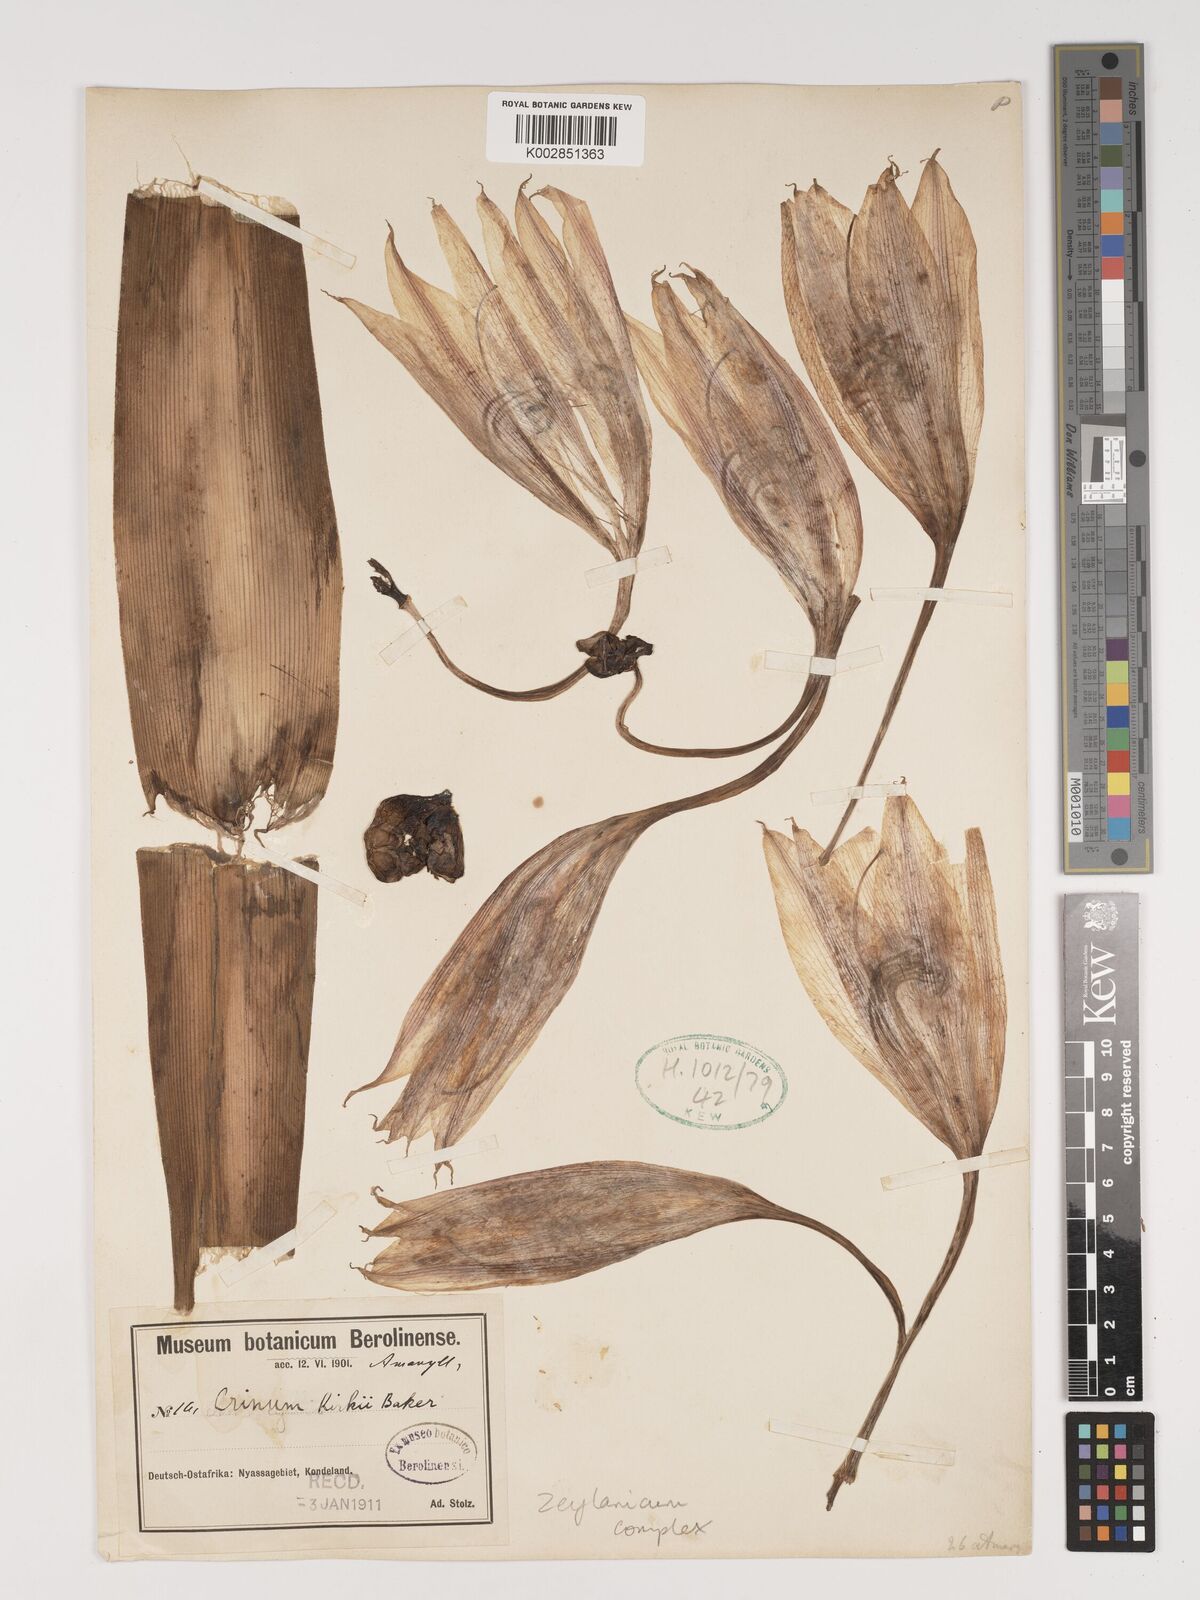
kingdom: Plantae
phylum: Tracheophyta
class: Liliopsida
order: Asparagales
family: Amaryllidaceae
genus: Crinum
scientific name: Crinum zeylanicum
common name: Ceylon swamplily
